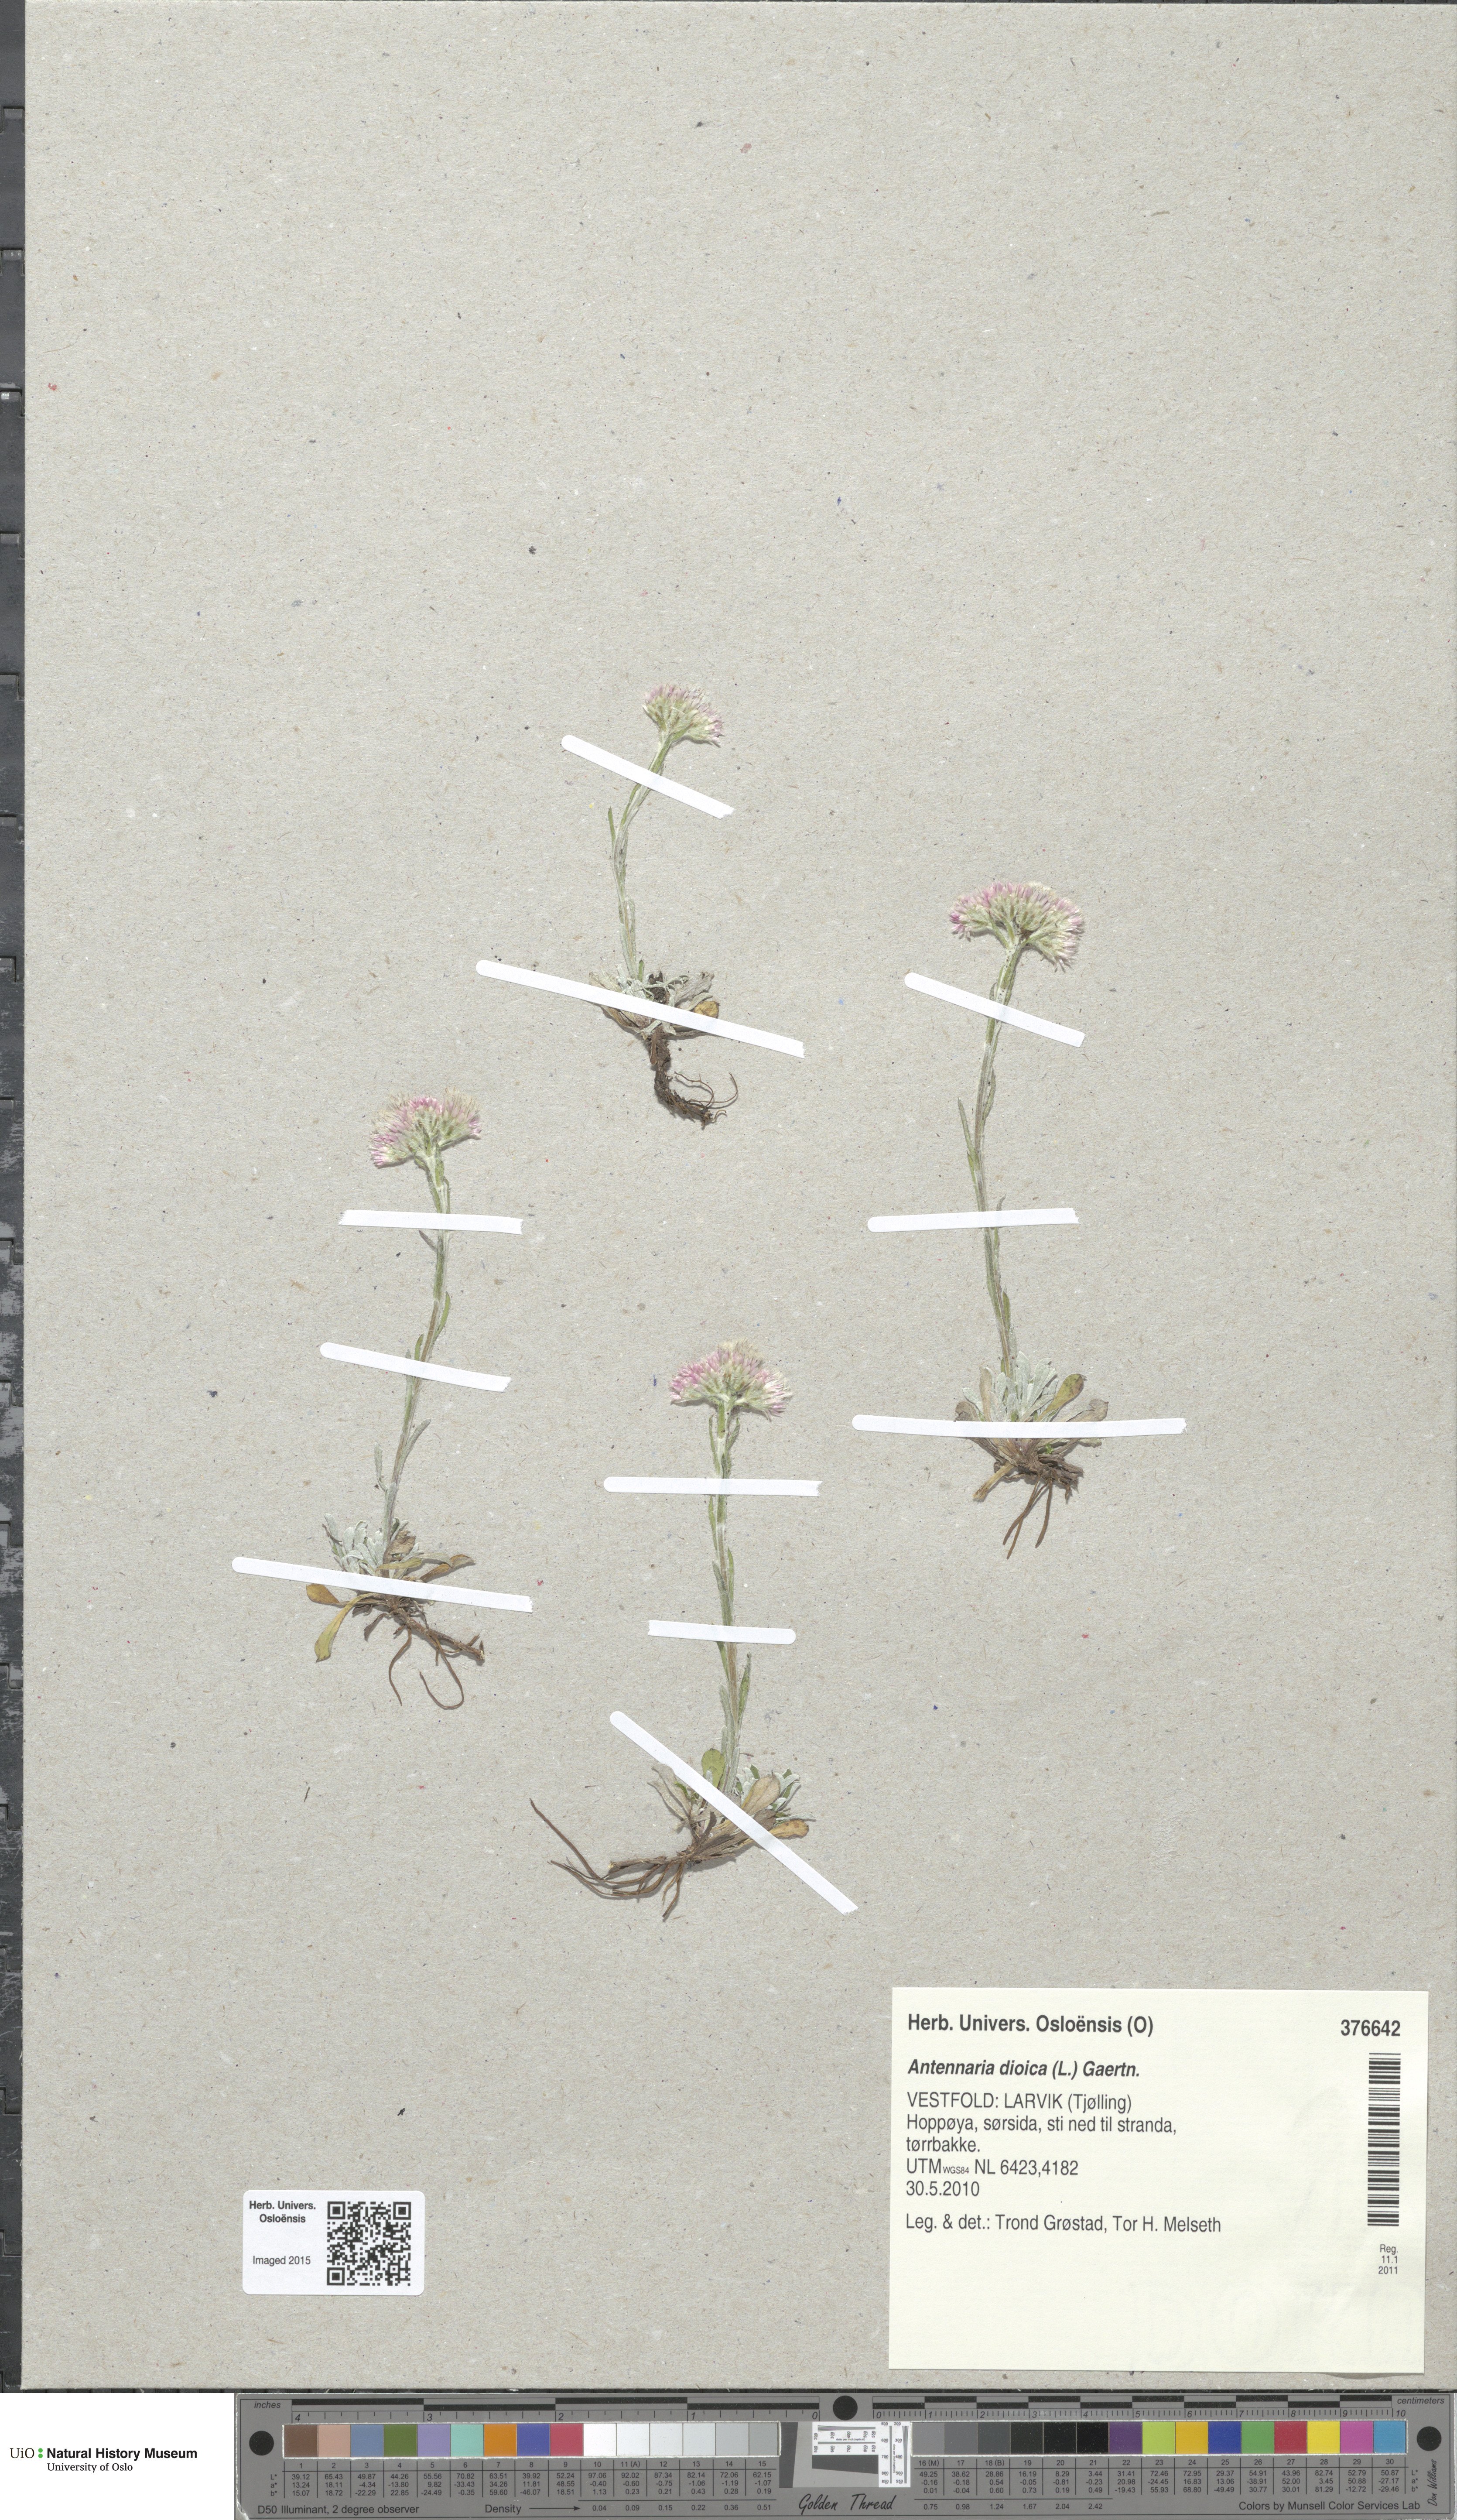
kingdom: Plantae
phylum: Tracheophyta
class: Magnoliopsida
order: Asterales
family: Asteraceae
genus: Antennaria
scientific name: Antennaria dioica
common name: Mountain everlasting
